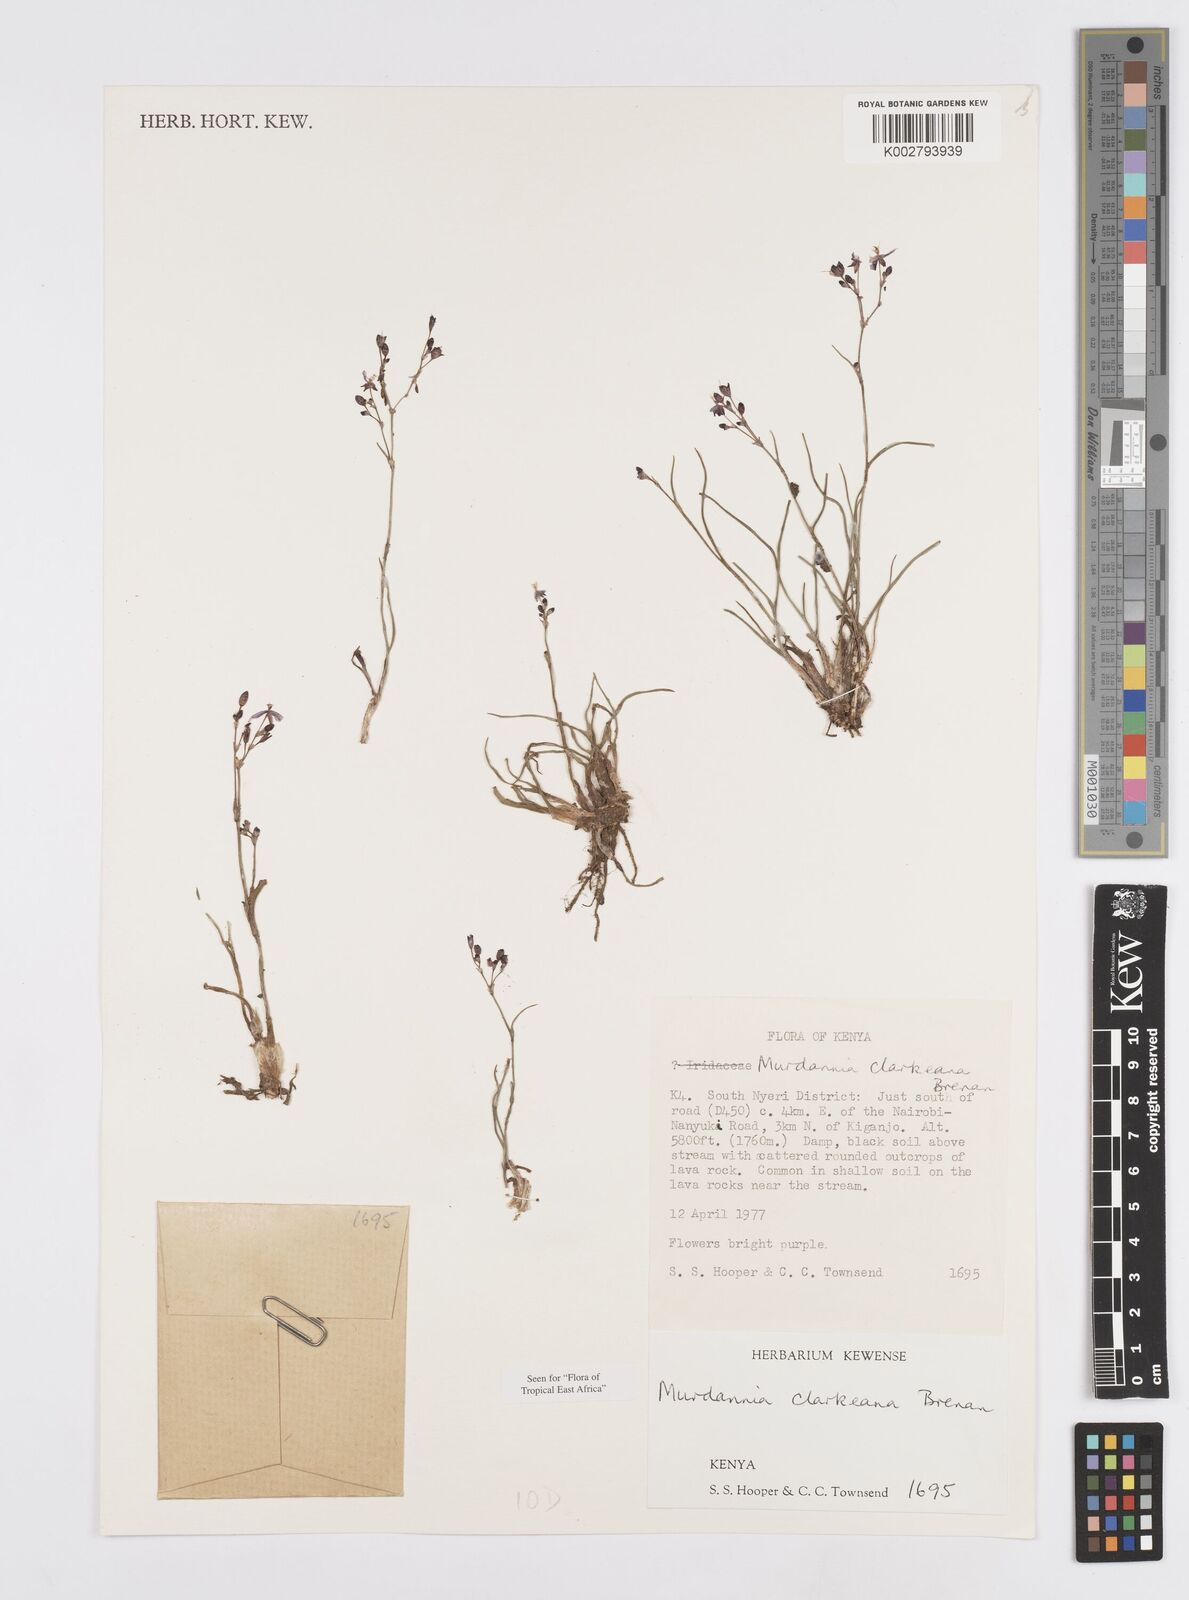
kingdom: Plantae
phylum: Tracheophyta
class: Liliopsida
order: Commelinales
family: Commelinaceae
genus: Murdannia
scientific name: Murdannia clarkeana
